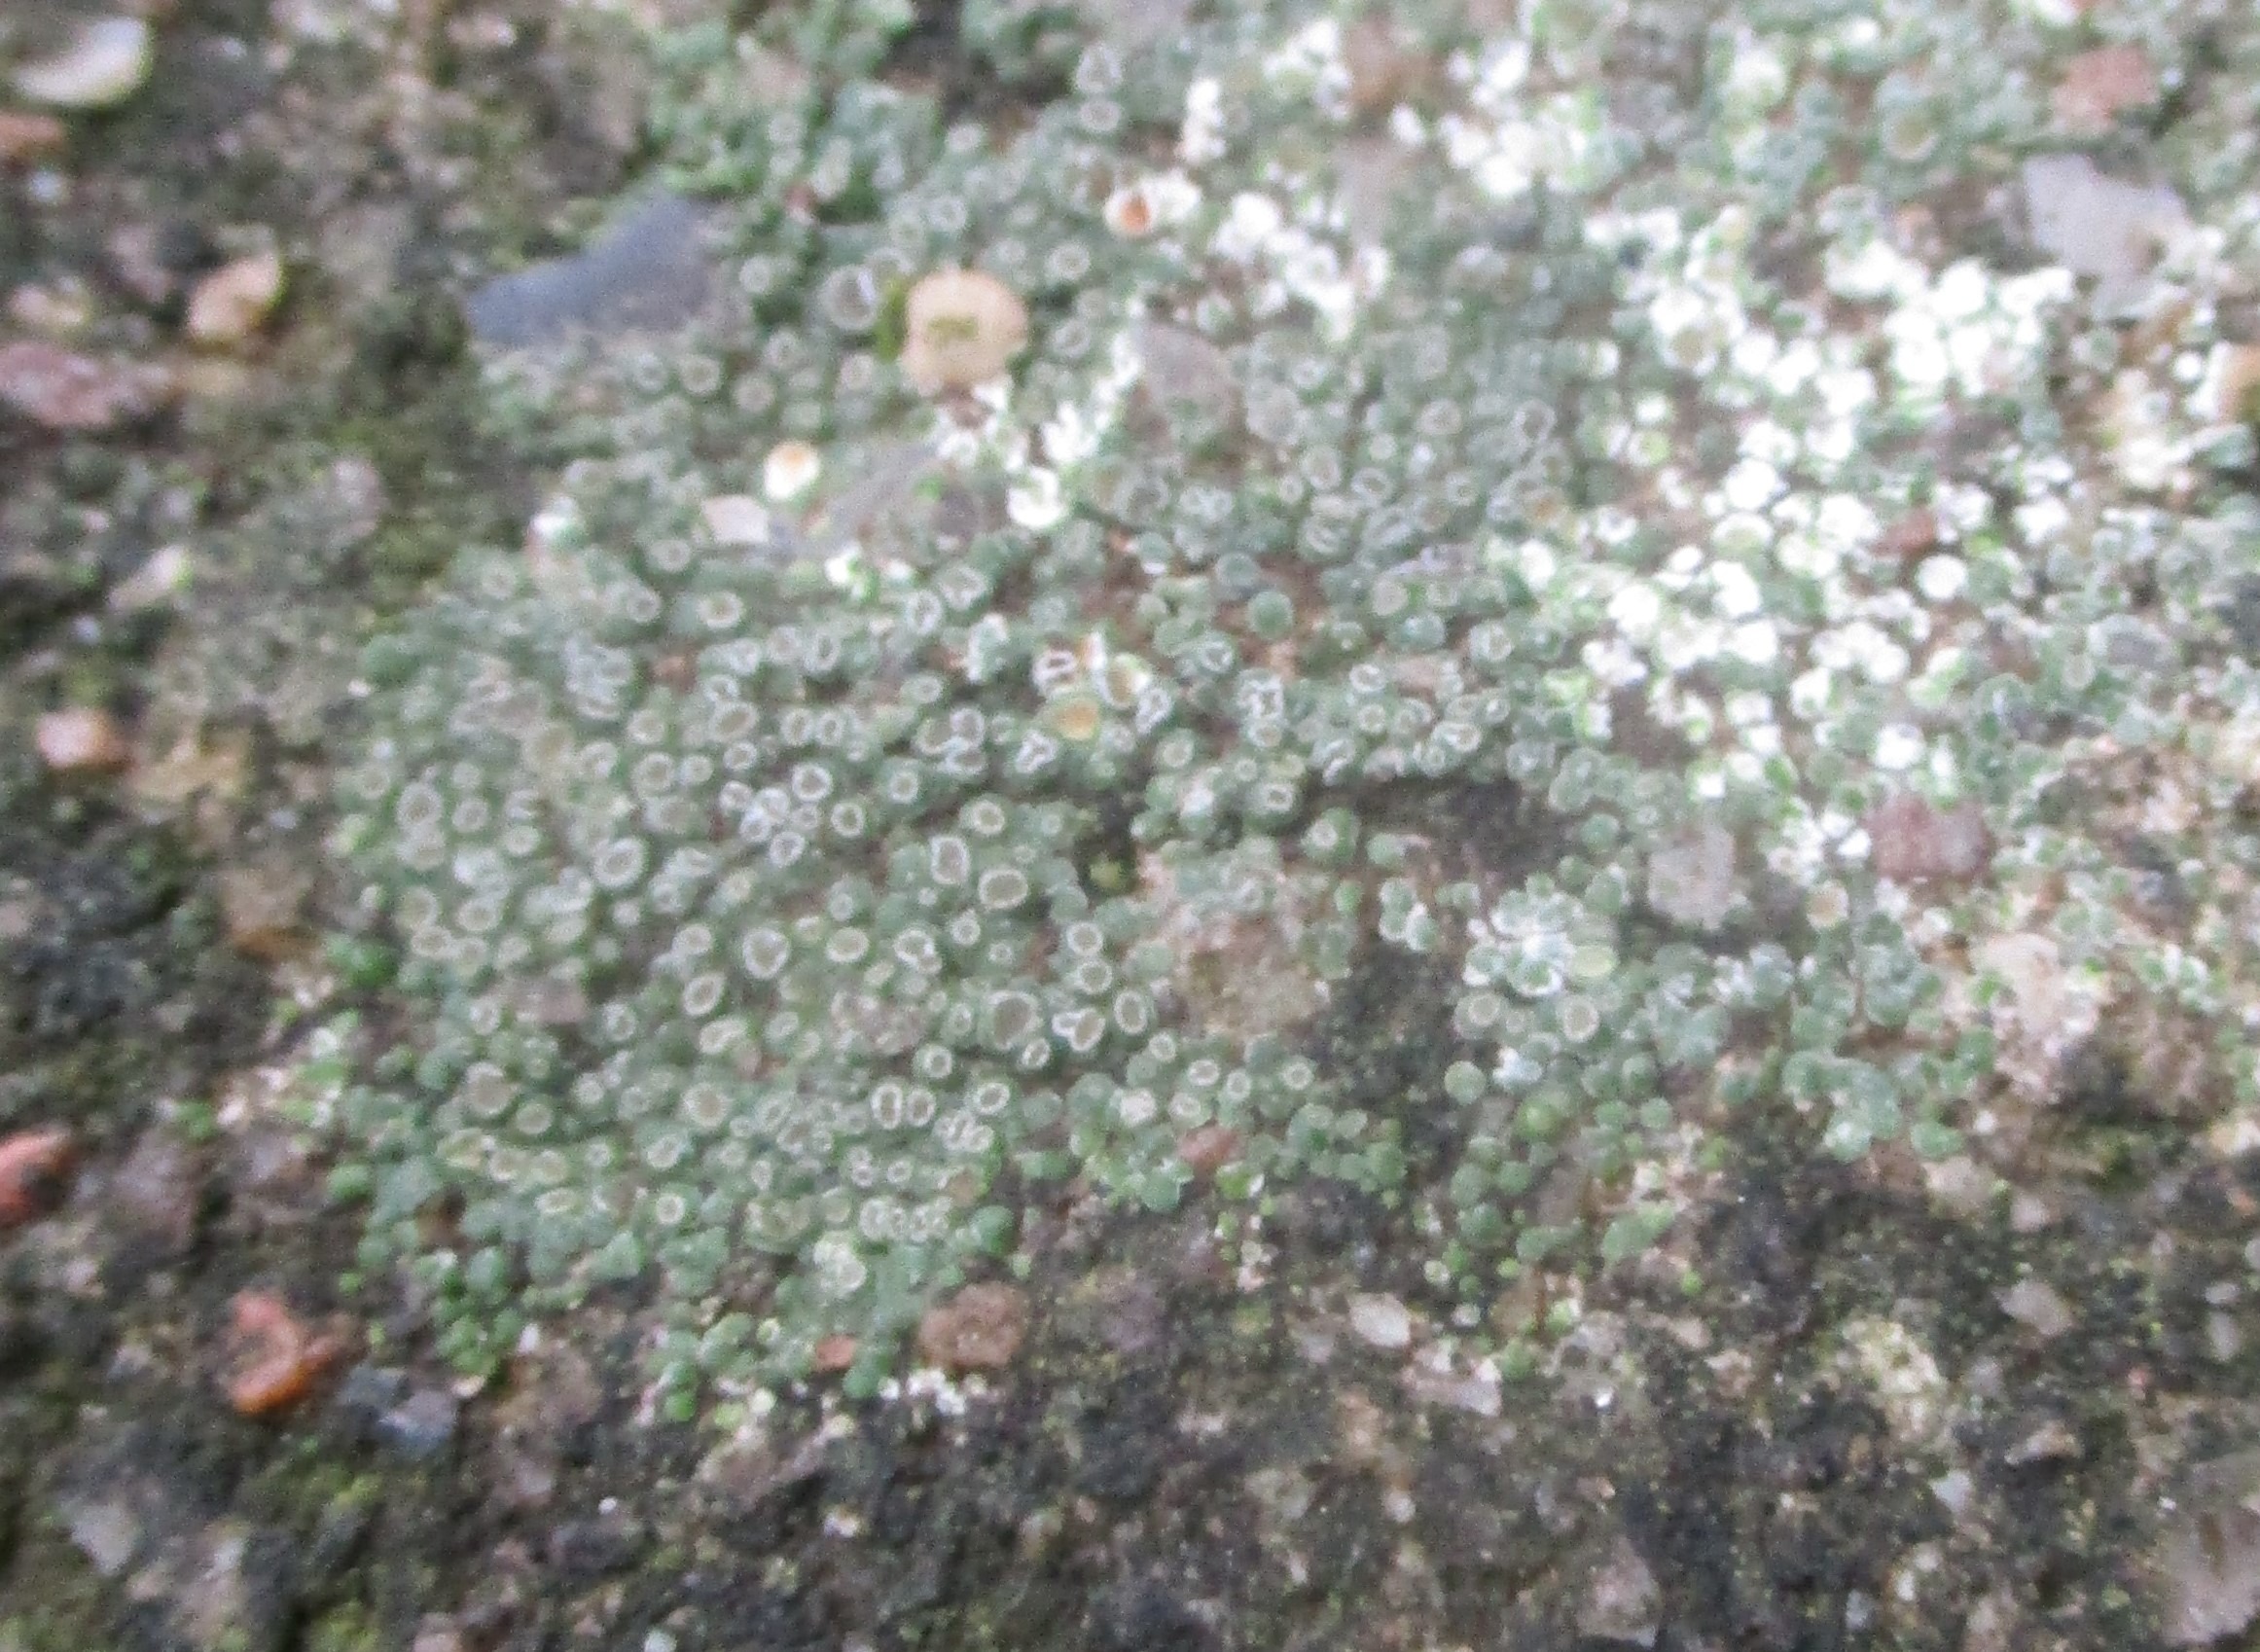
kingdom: Fungi
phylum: Ascomycota
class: Lecanoromycetes
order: Pertusariales
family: Megasporaceae
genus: Circinaria
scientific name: Circinaria contorta
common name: Indviklet hulskivelav
